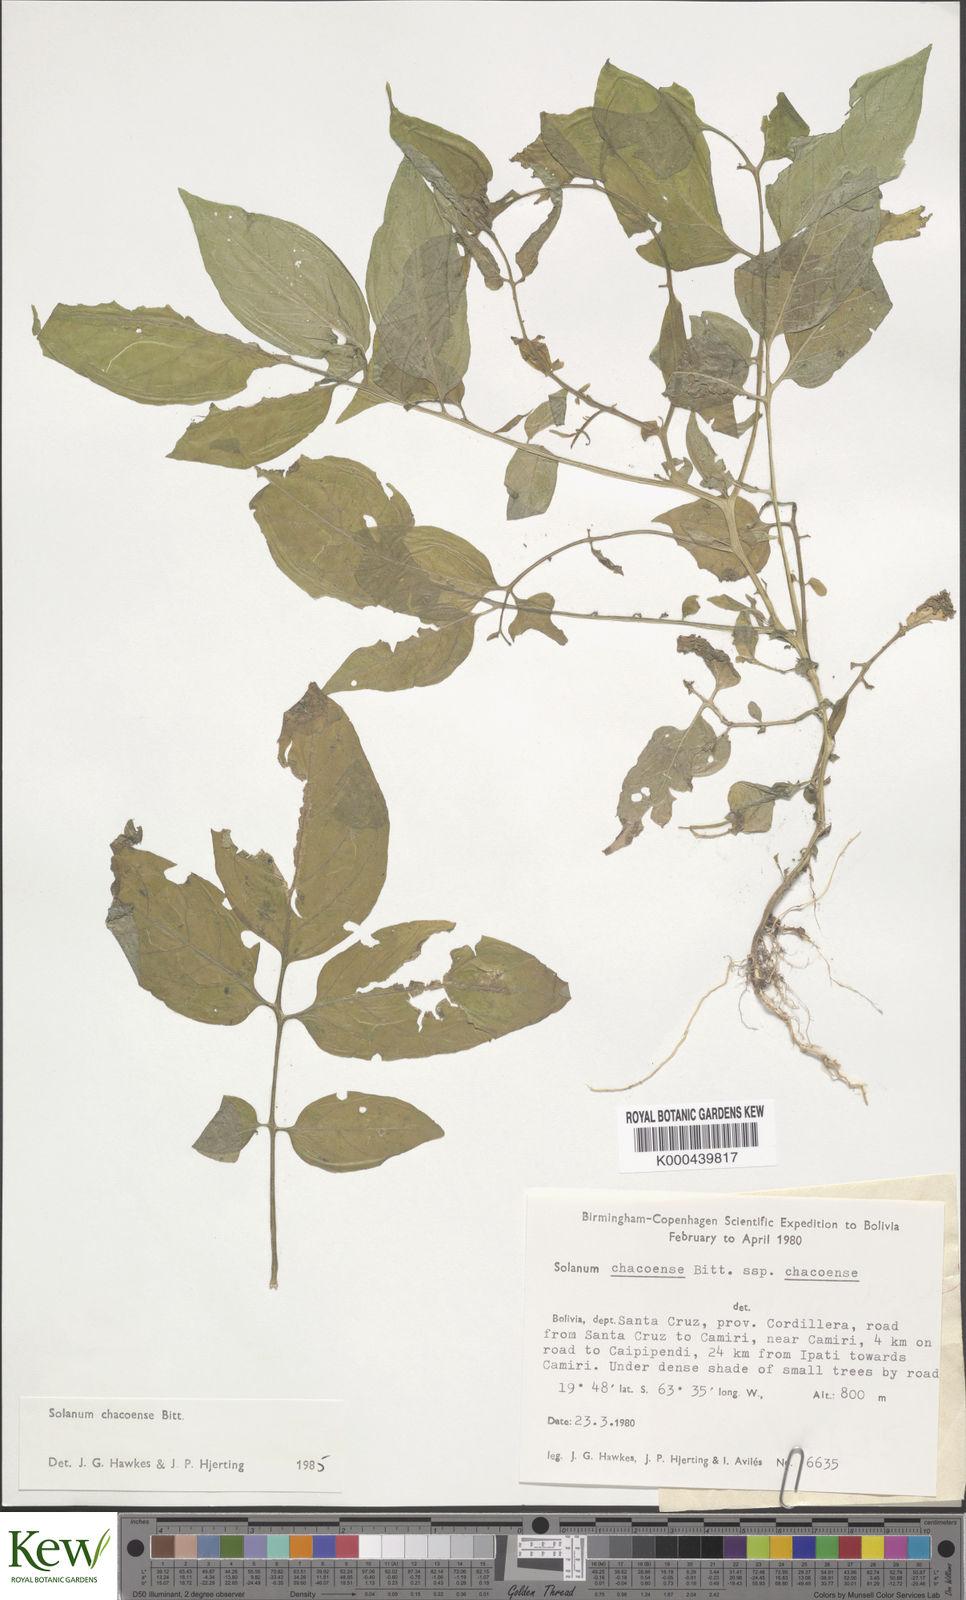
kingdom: Plantae
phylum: Tracheophyta
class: Magnoliopsida
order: Solanales
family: Solanaceae
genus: Solanum
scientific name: Solanum chacoense
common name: Chaco potato
